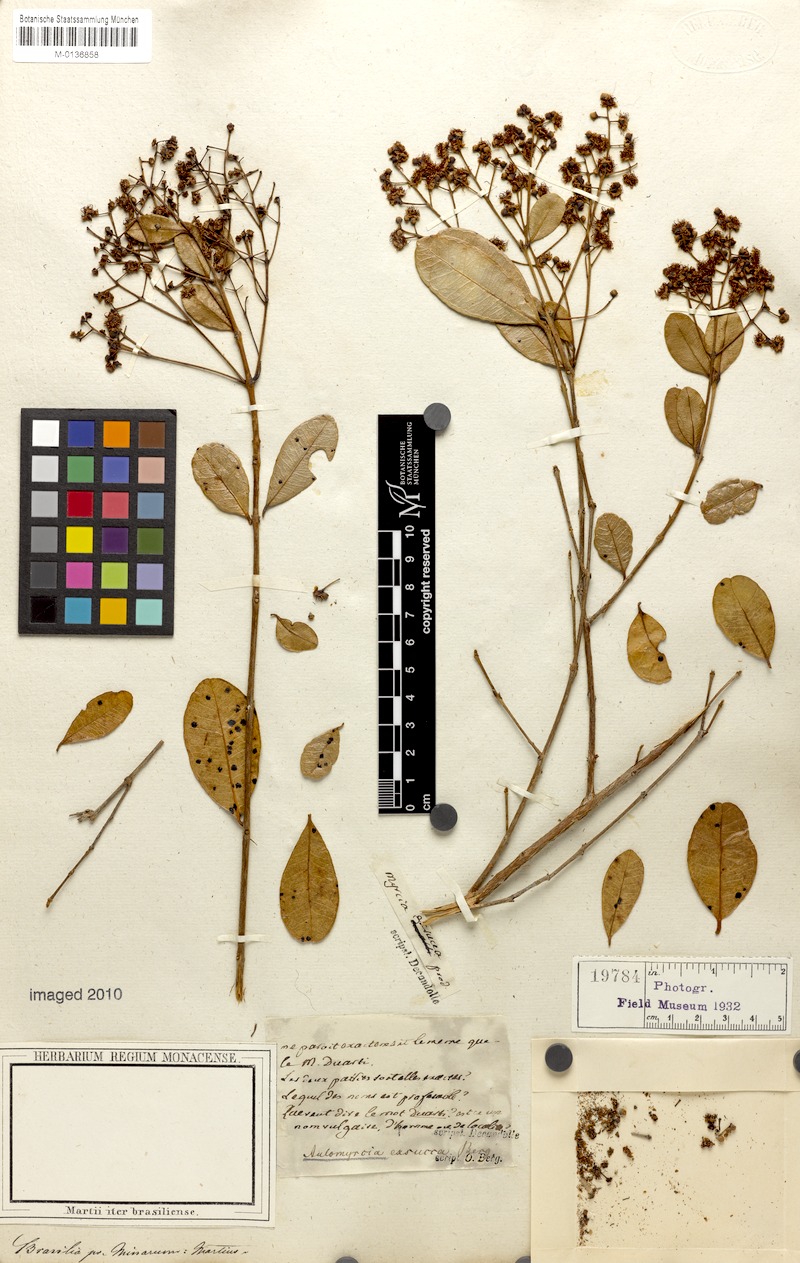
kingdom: Plantae
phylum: Tracheophyta
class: Magnoliopsida
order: Myrtales
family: Myrtaceae
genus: Myrcia
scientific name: Myrcia guianensis
